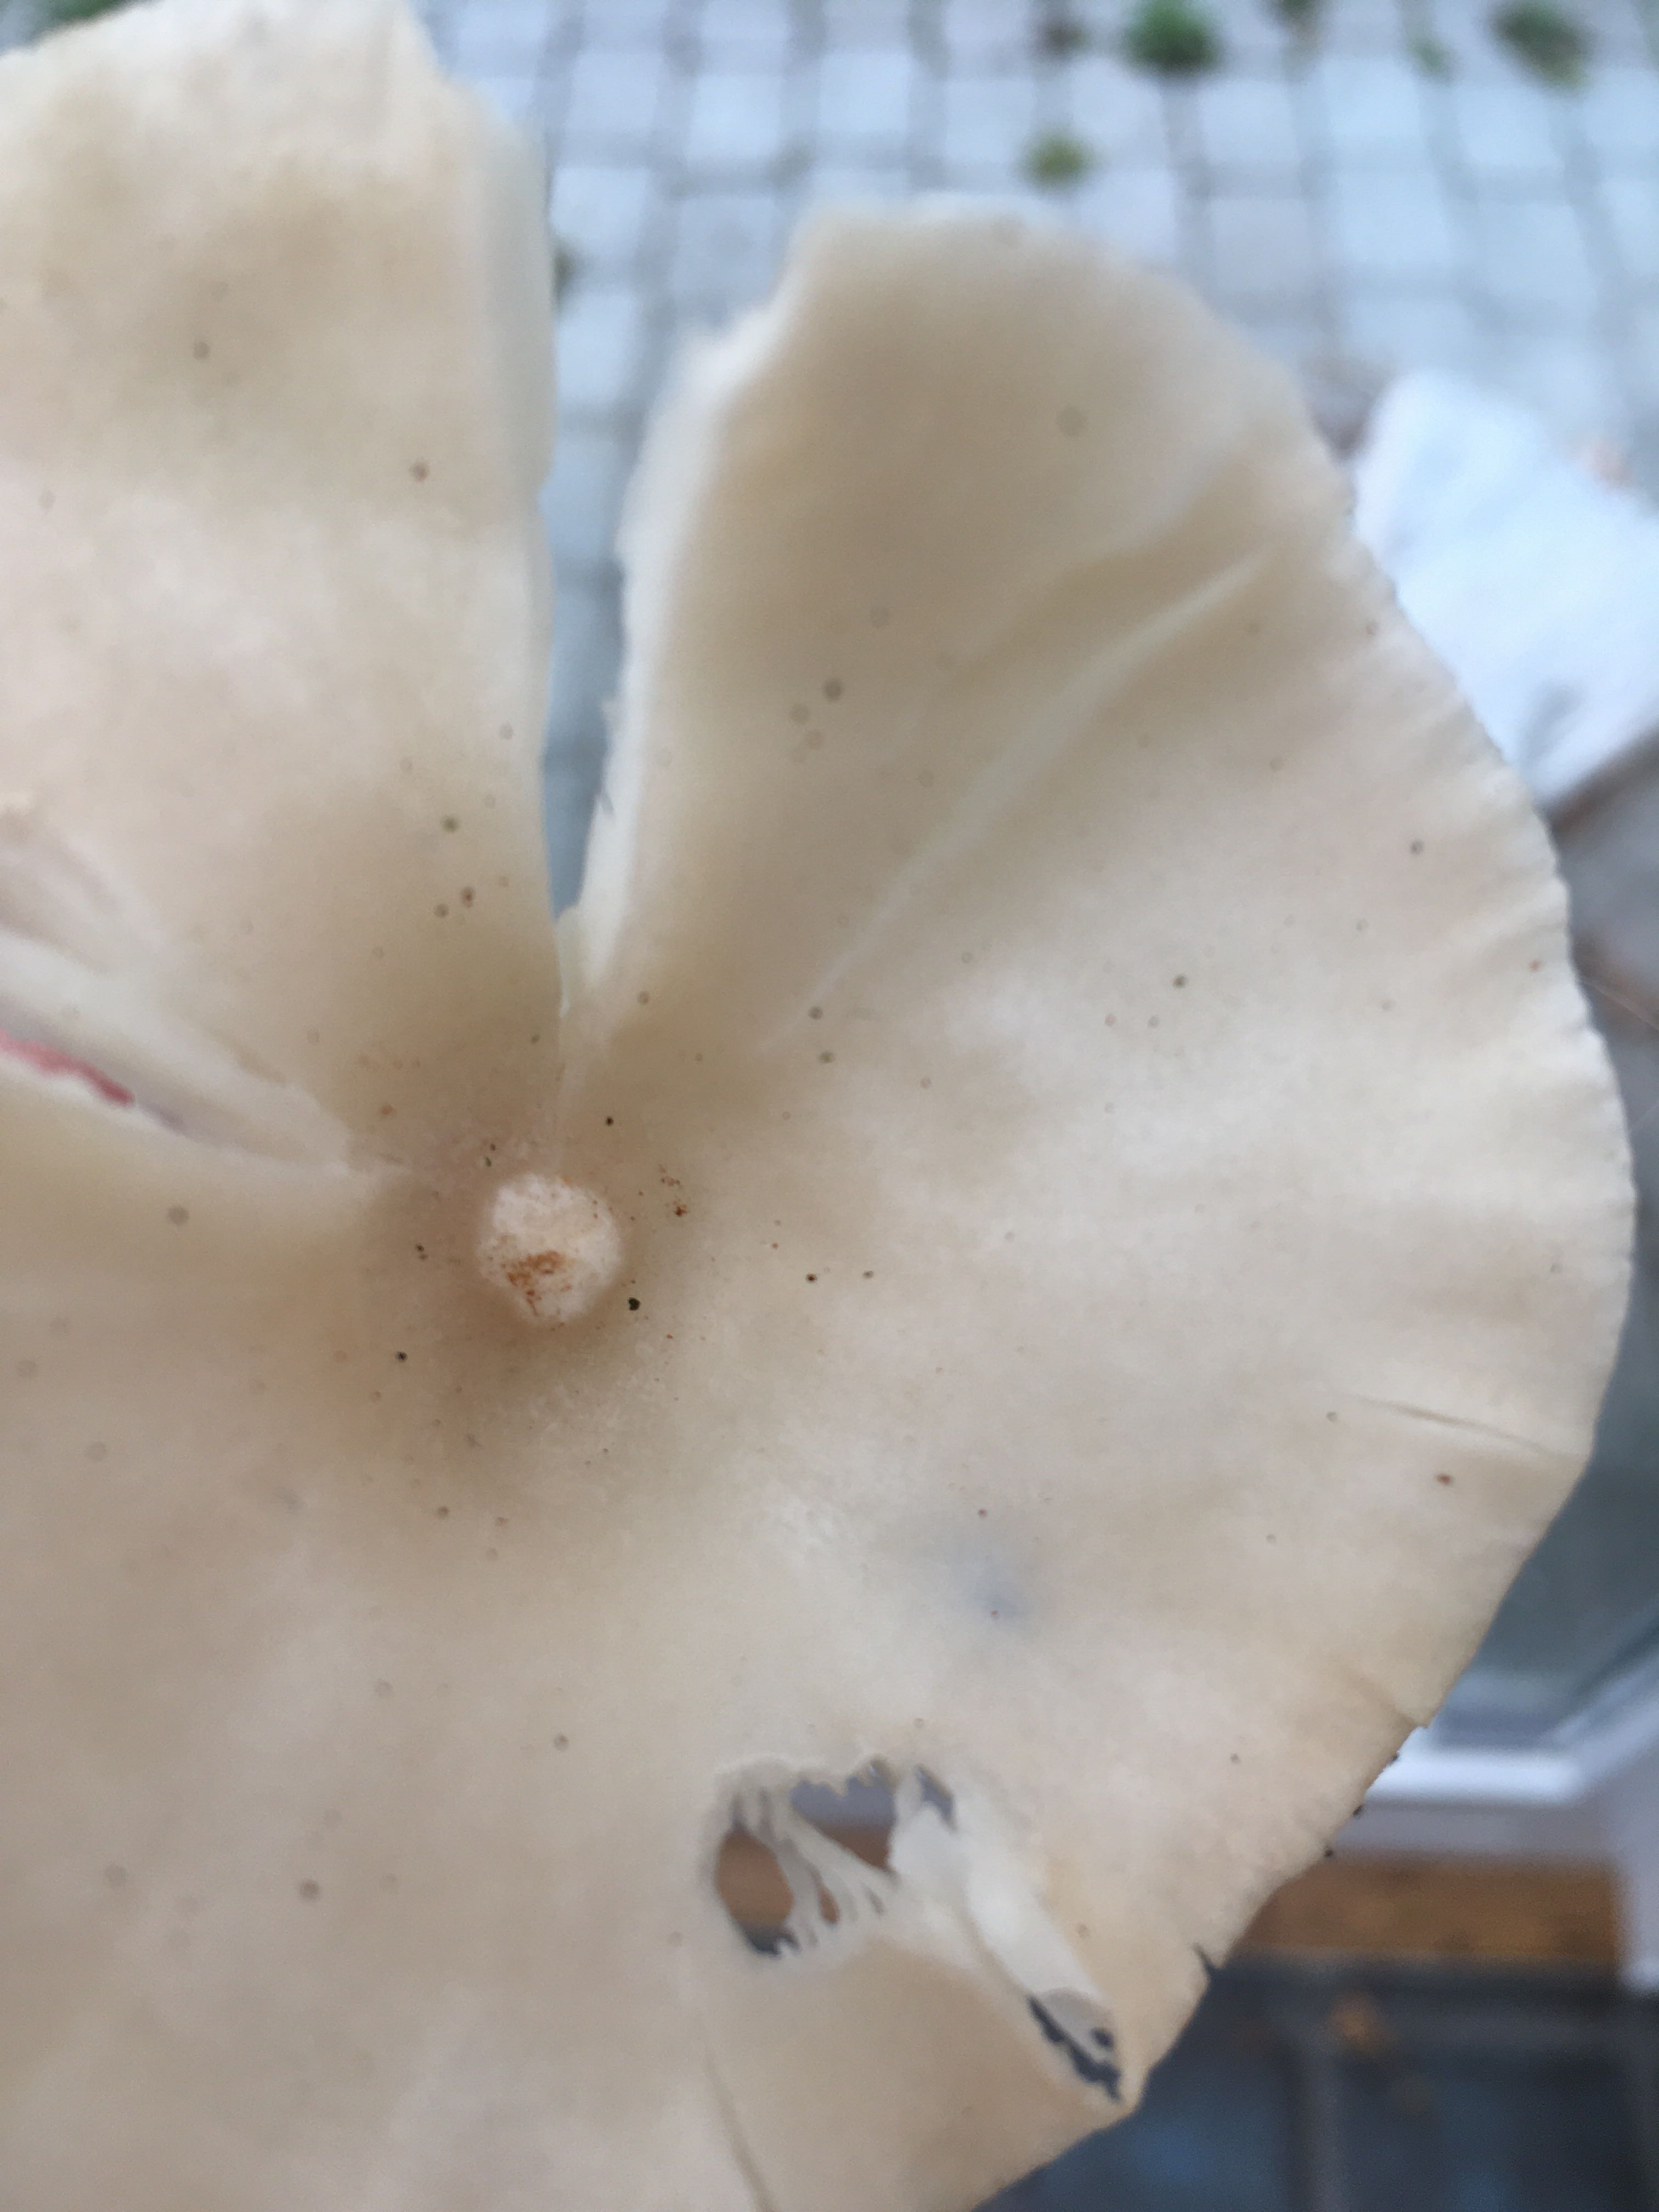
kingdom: Fungi
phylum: Basidiomycota
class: Agaricomycetes
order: Agaricales
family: Tricholomataceae
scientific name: Tricholomataceae
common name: ridderhatfamilien
